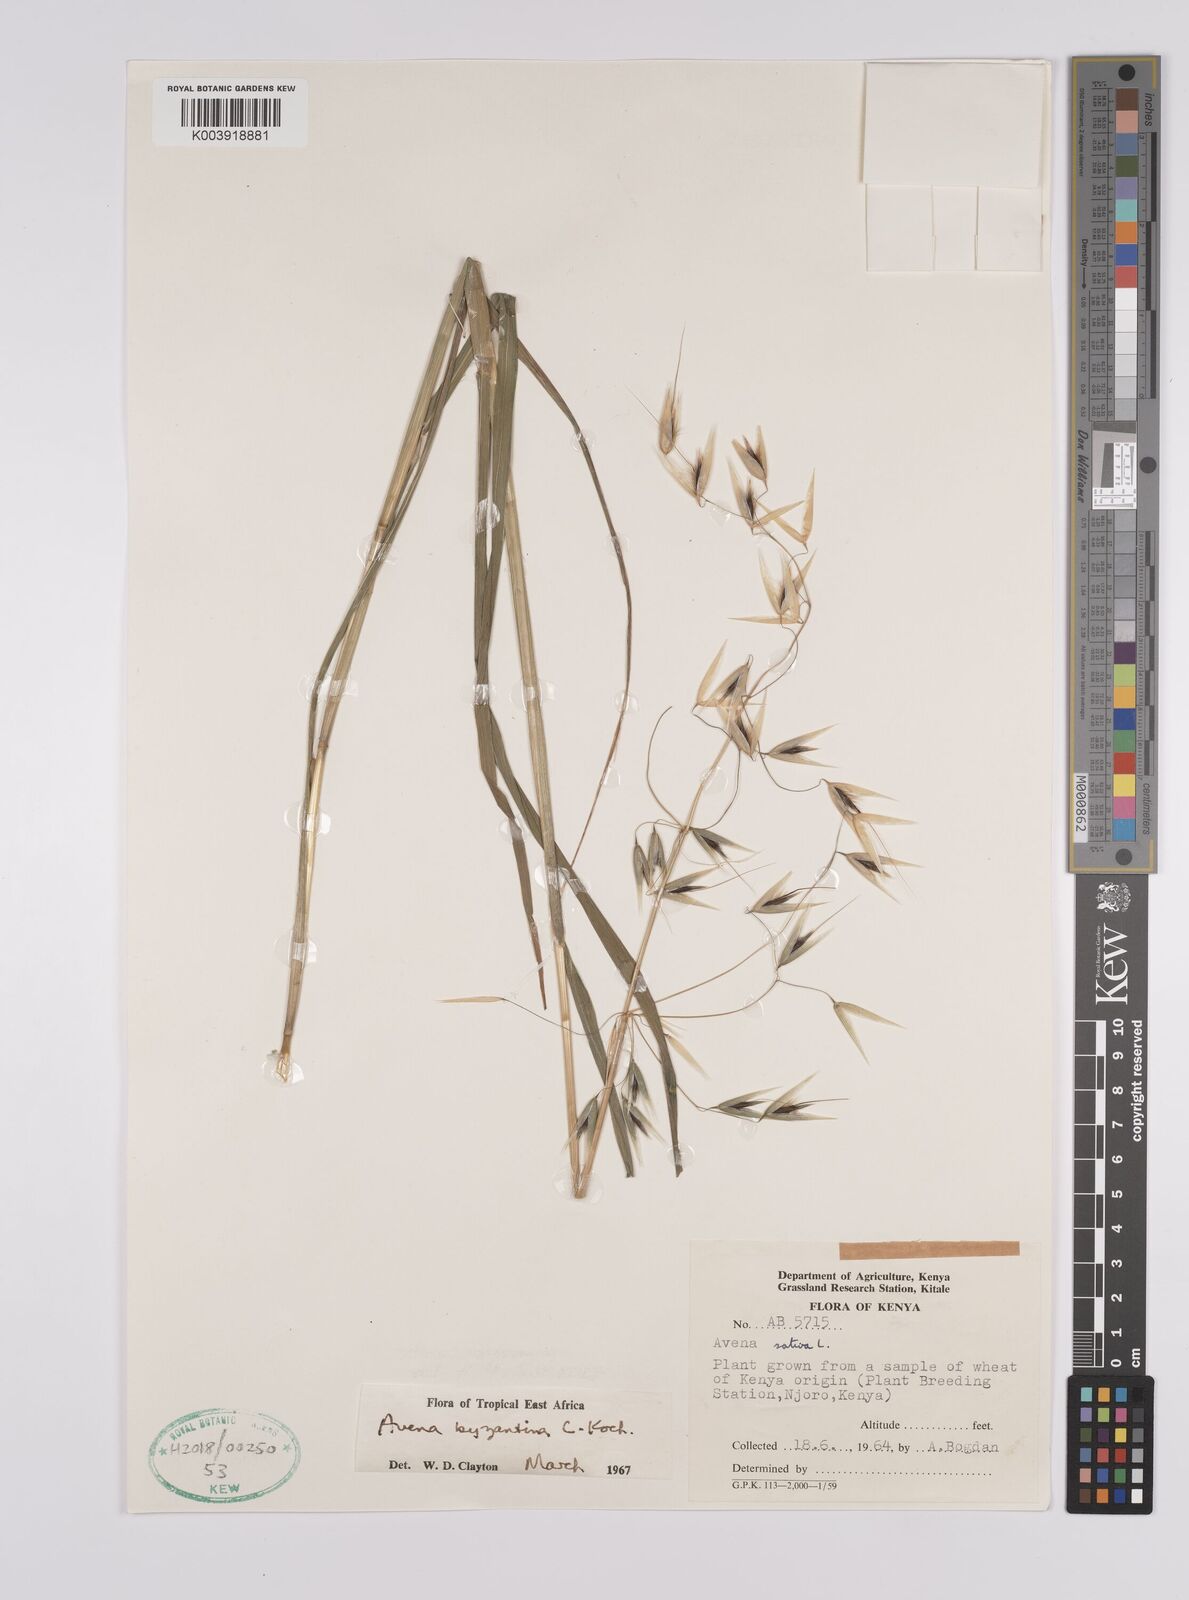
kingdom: Plantae
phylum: Tracheophyta
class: Liliopsida
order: Poales
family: Poaceae
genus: Avena
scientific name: Avena byzantina
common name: Algerian oat
